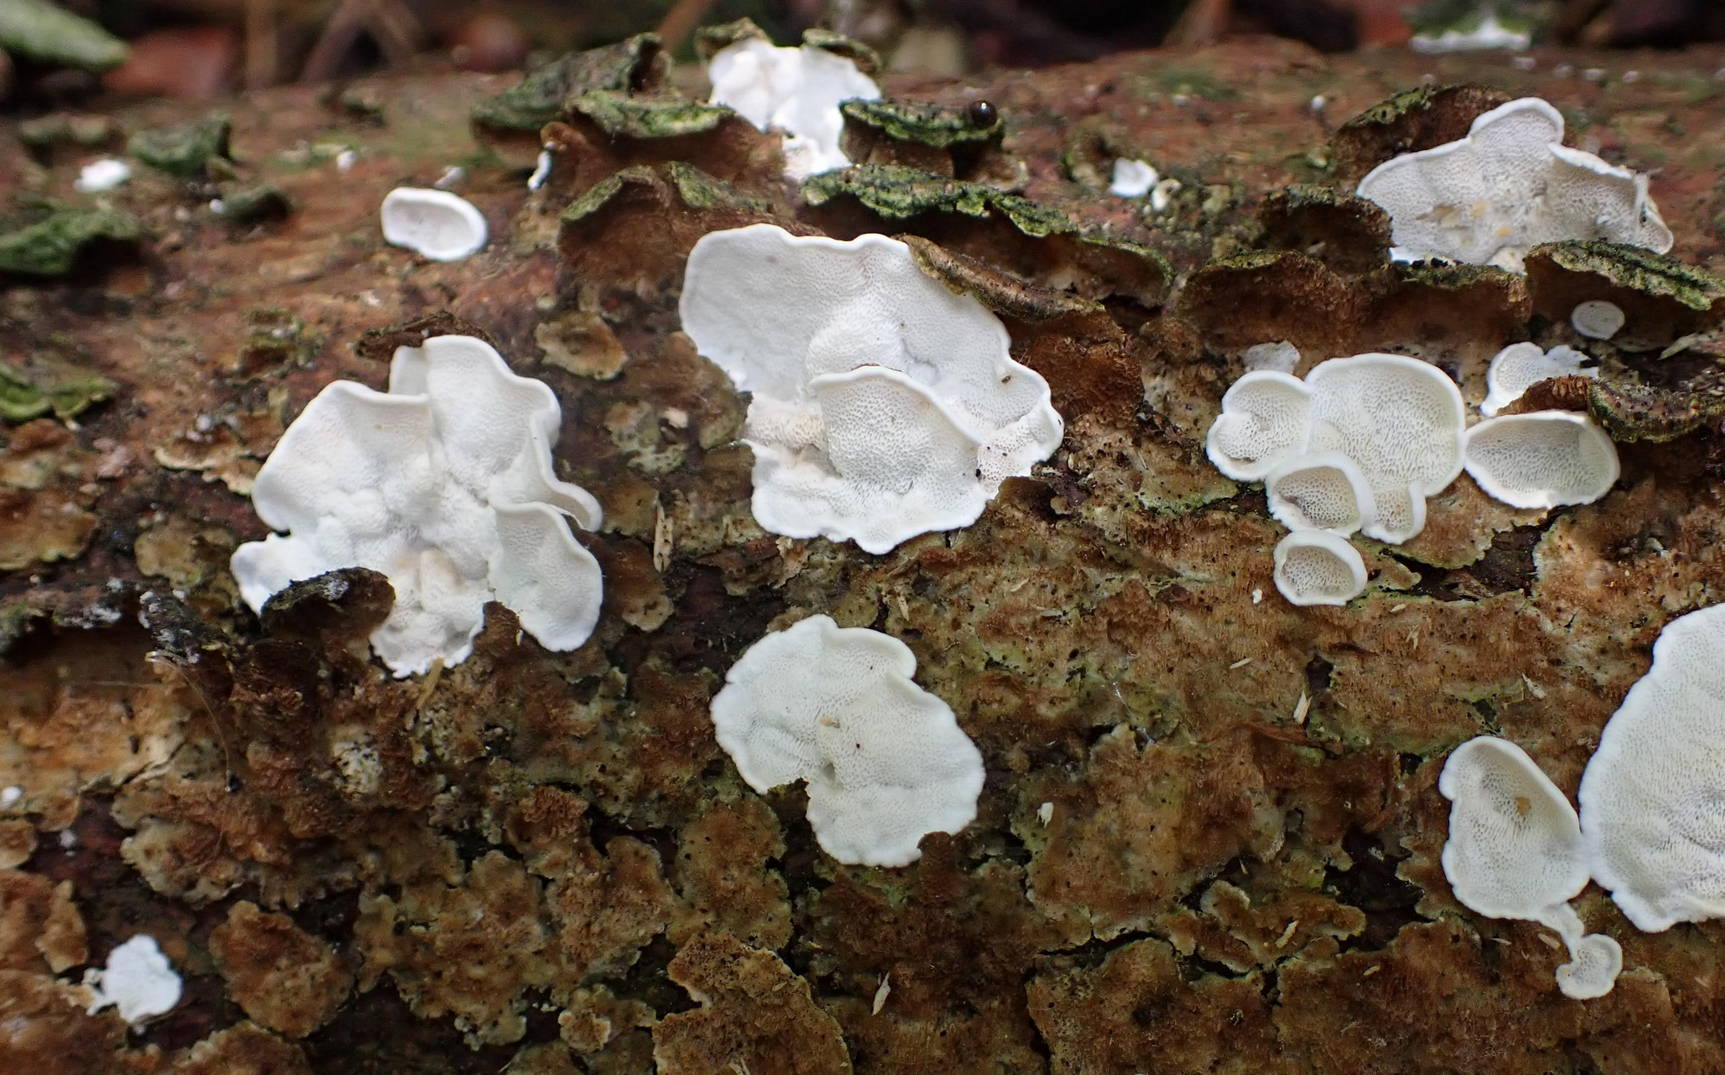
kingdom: Fungi
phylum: Basidiomycota
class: Agaricomycetes
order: Polyporales
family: Incrustoporiaceae
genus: Skeletocutis
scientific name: Skeletocutis carneogrisea
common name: rødgrå krystalporesvamp
